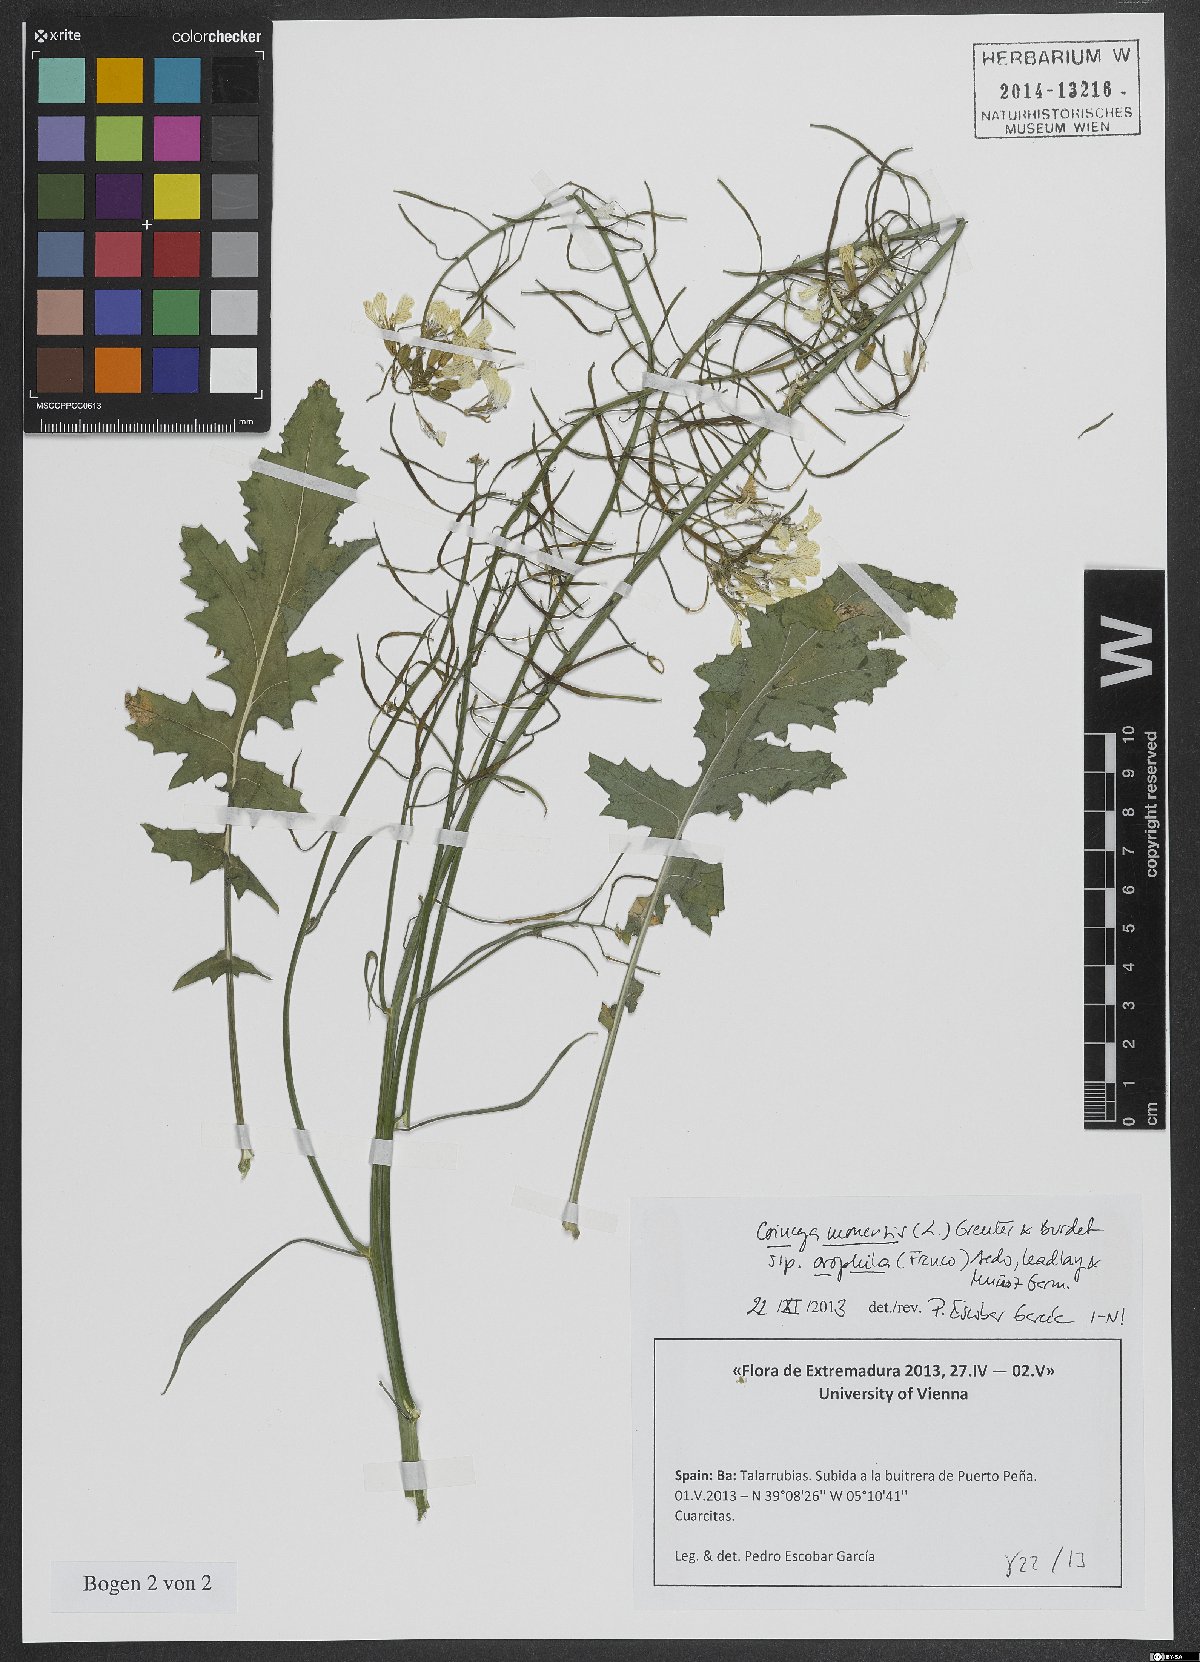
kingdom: Plantae
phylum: Tracheophyta
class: Magnoliopsida
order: Brassicales
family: Brassicaceae
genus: Coincya
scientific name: Coincya monensis
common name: Star-mustard
